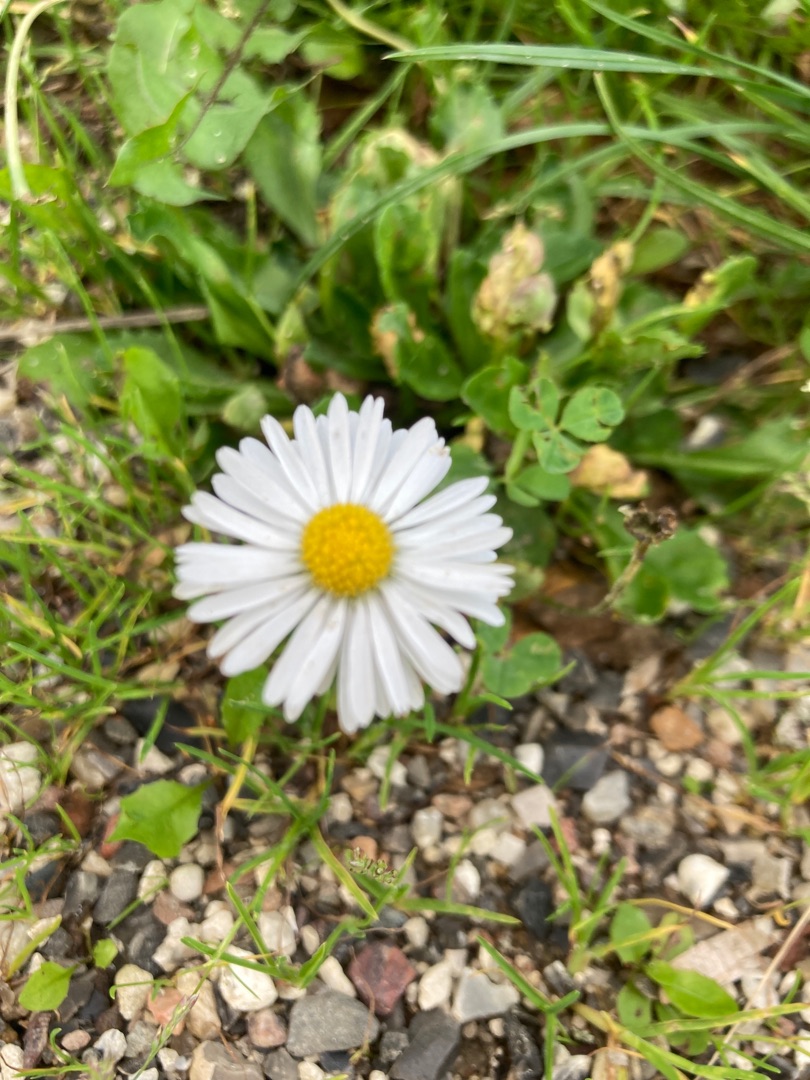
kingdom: Plantae
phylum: Tracheophyta
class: Magnoliopsida
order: Asterales
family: Asteraceae
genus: Bellis
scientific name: Bellis perennis
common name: Tusindfryd
